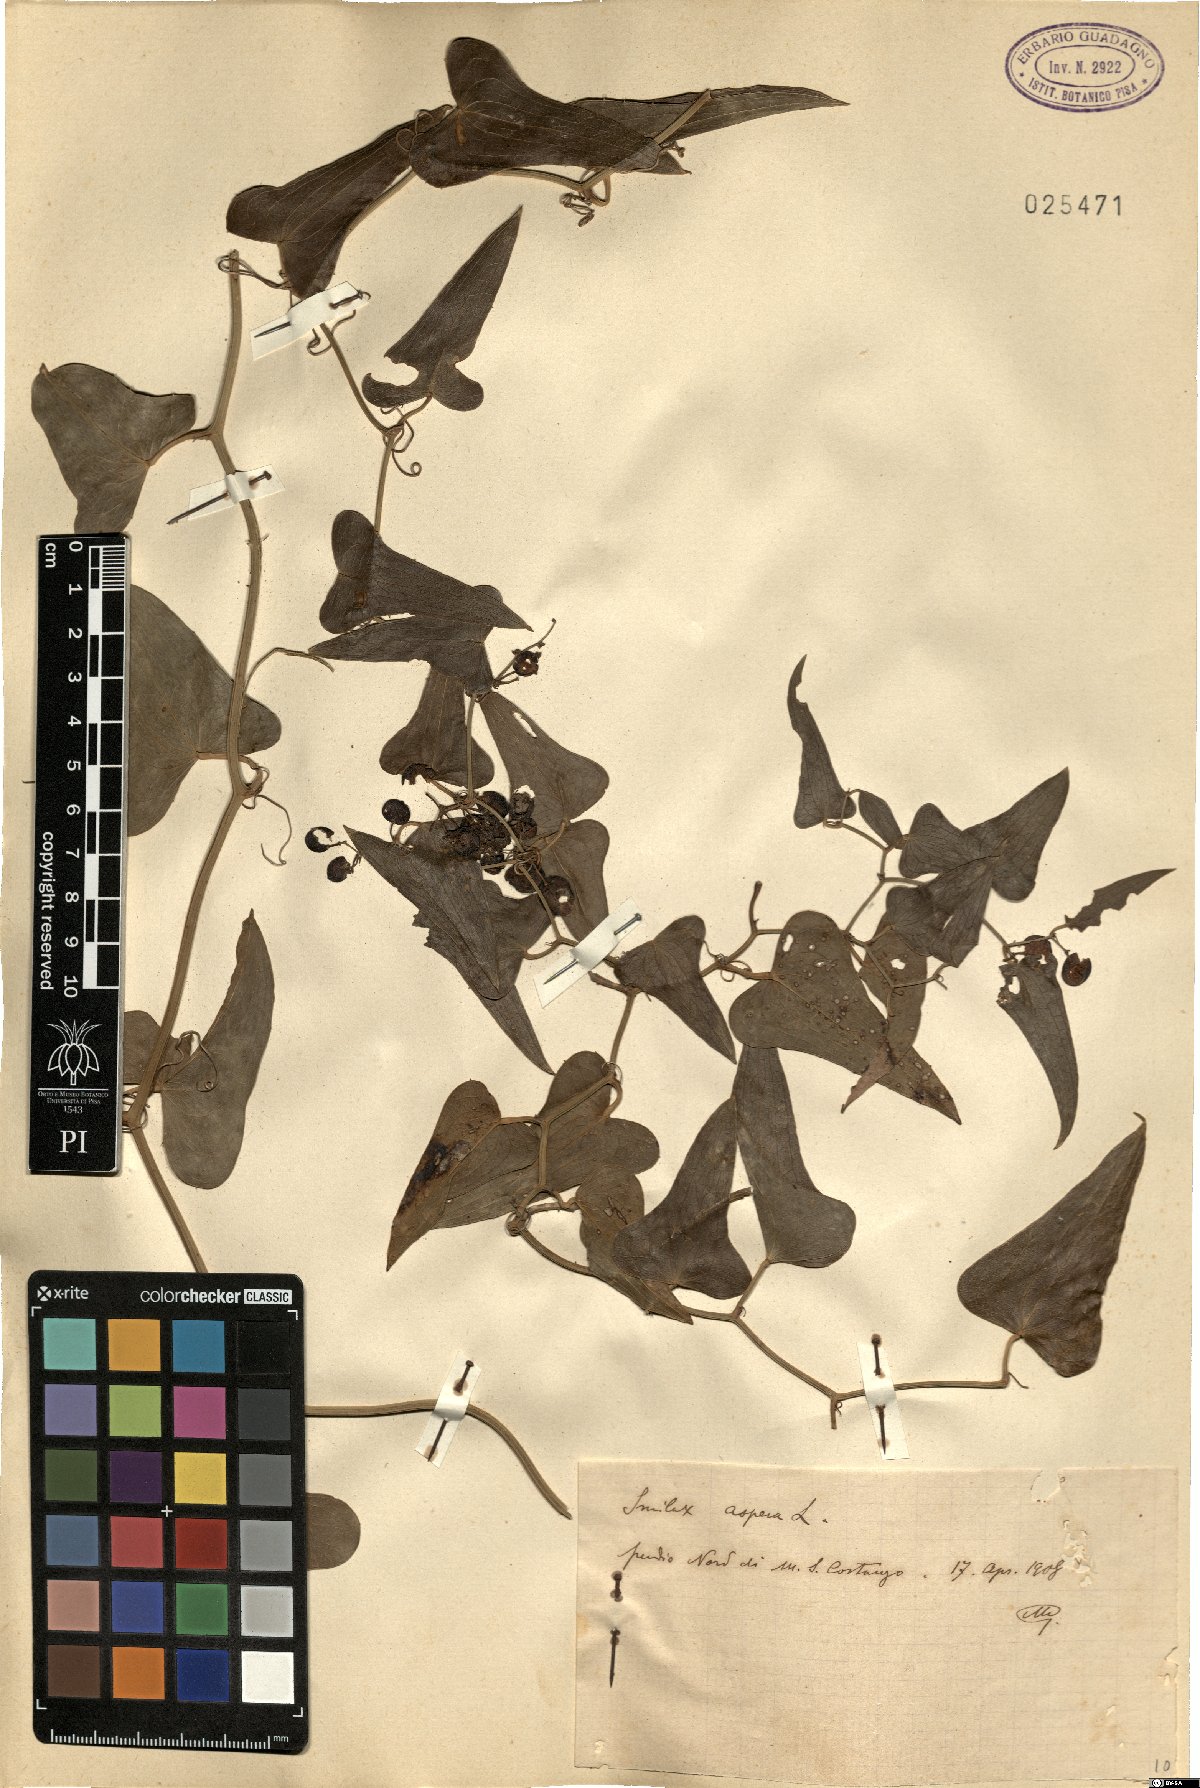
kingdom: Plantae
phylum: Tracheophyta
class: Liliopsida
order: Liliales
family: Smilacaceae
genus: Smilax
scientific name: Smilax aspera
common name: Common smilax
